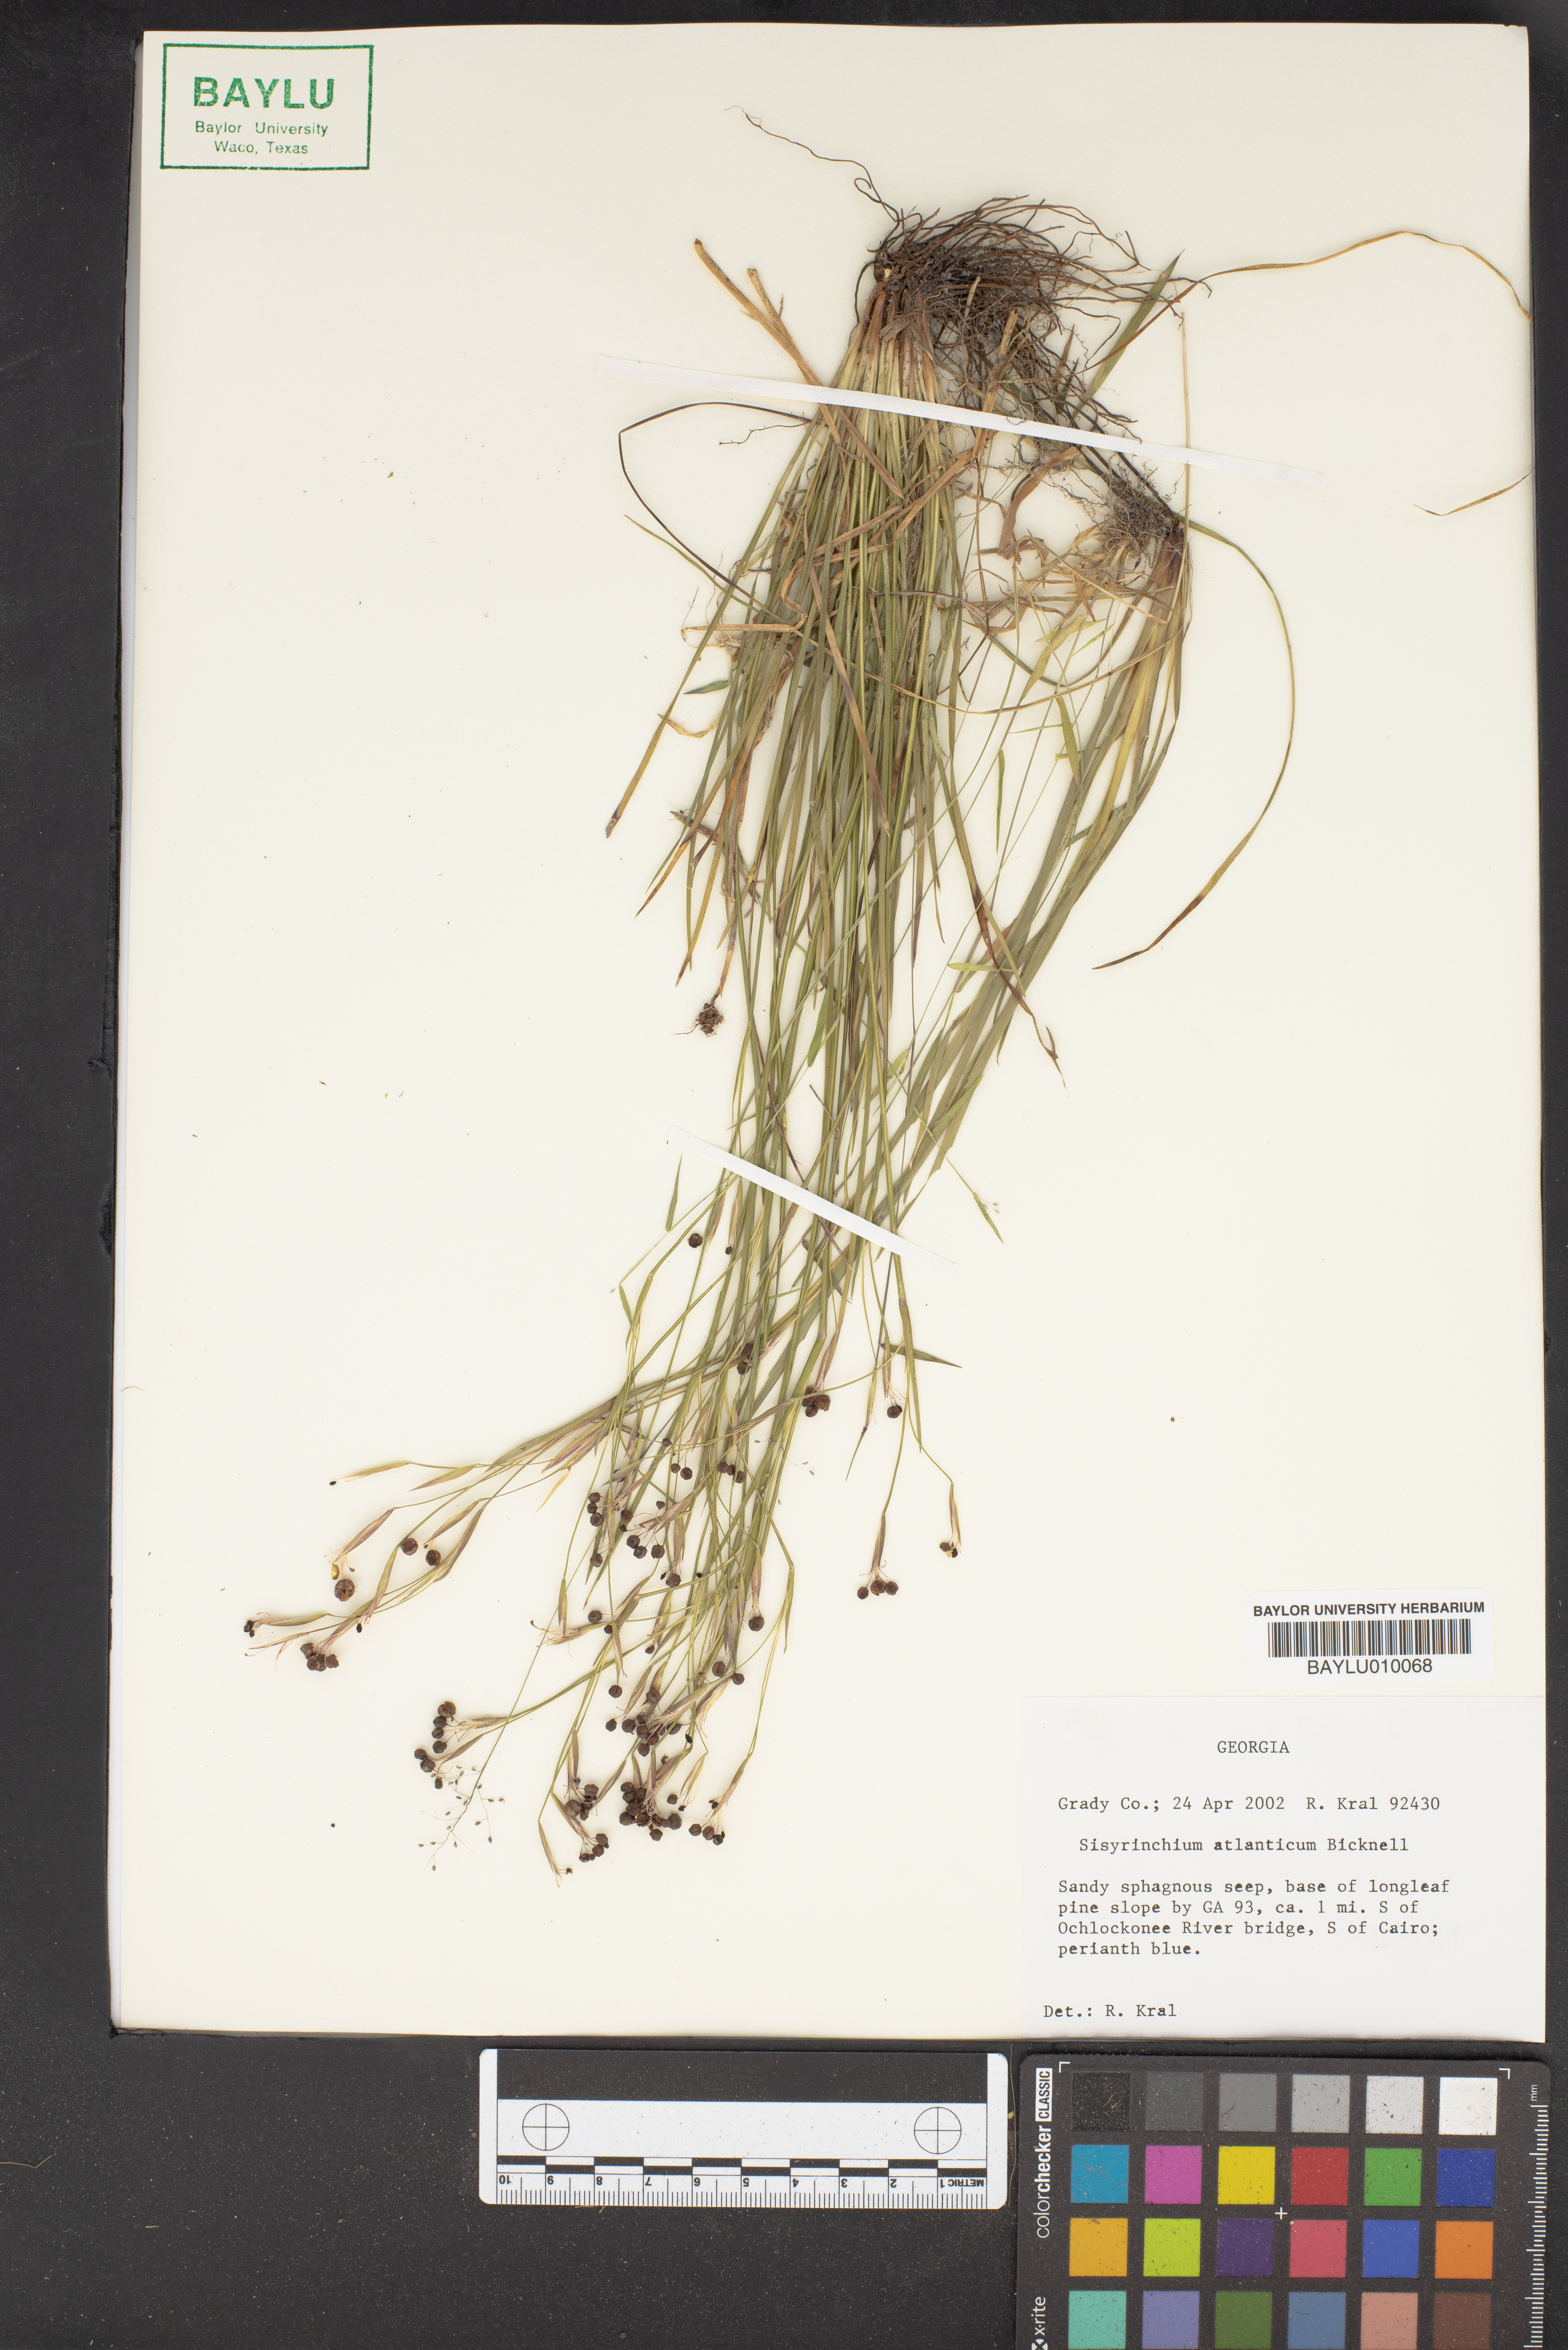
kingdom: Plantae
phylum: Tracheophyta
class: Liliopsida
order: Asparagales
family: Iridaceae
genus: Sisyrinchium
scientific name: Sisyrinchium atlanticum
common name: Eastern blue-eyed-grass
